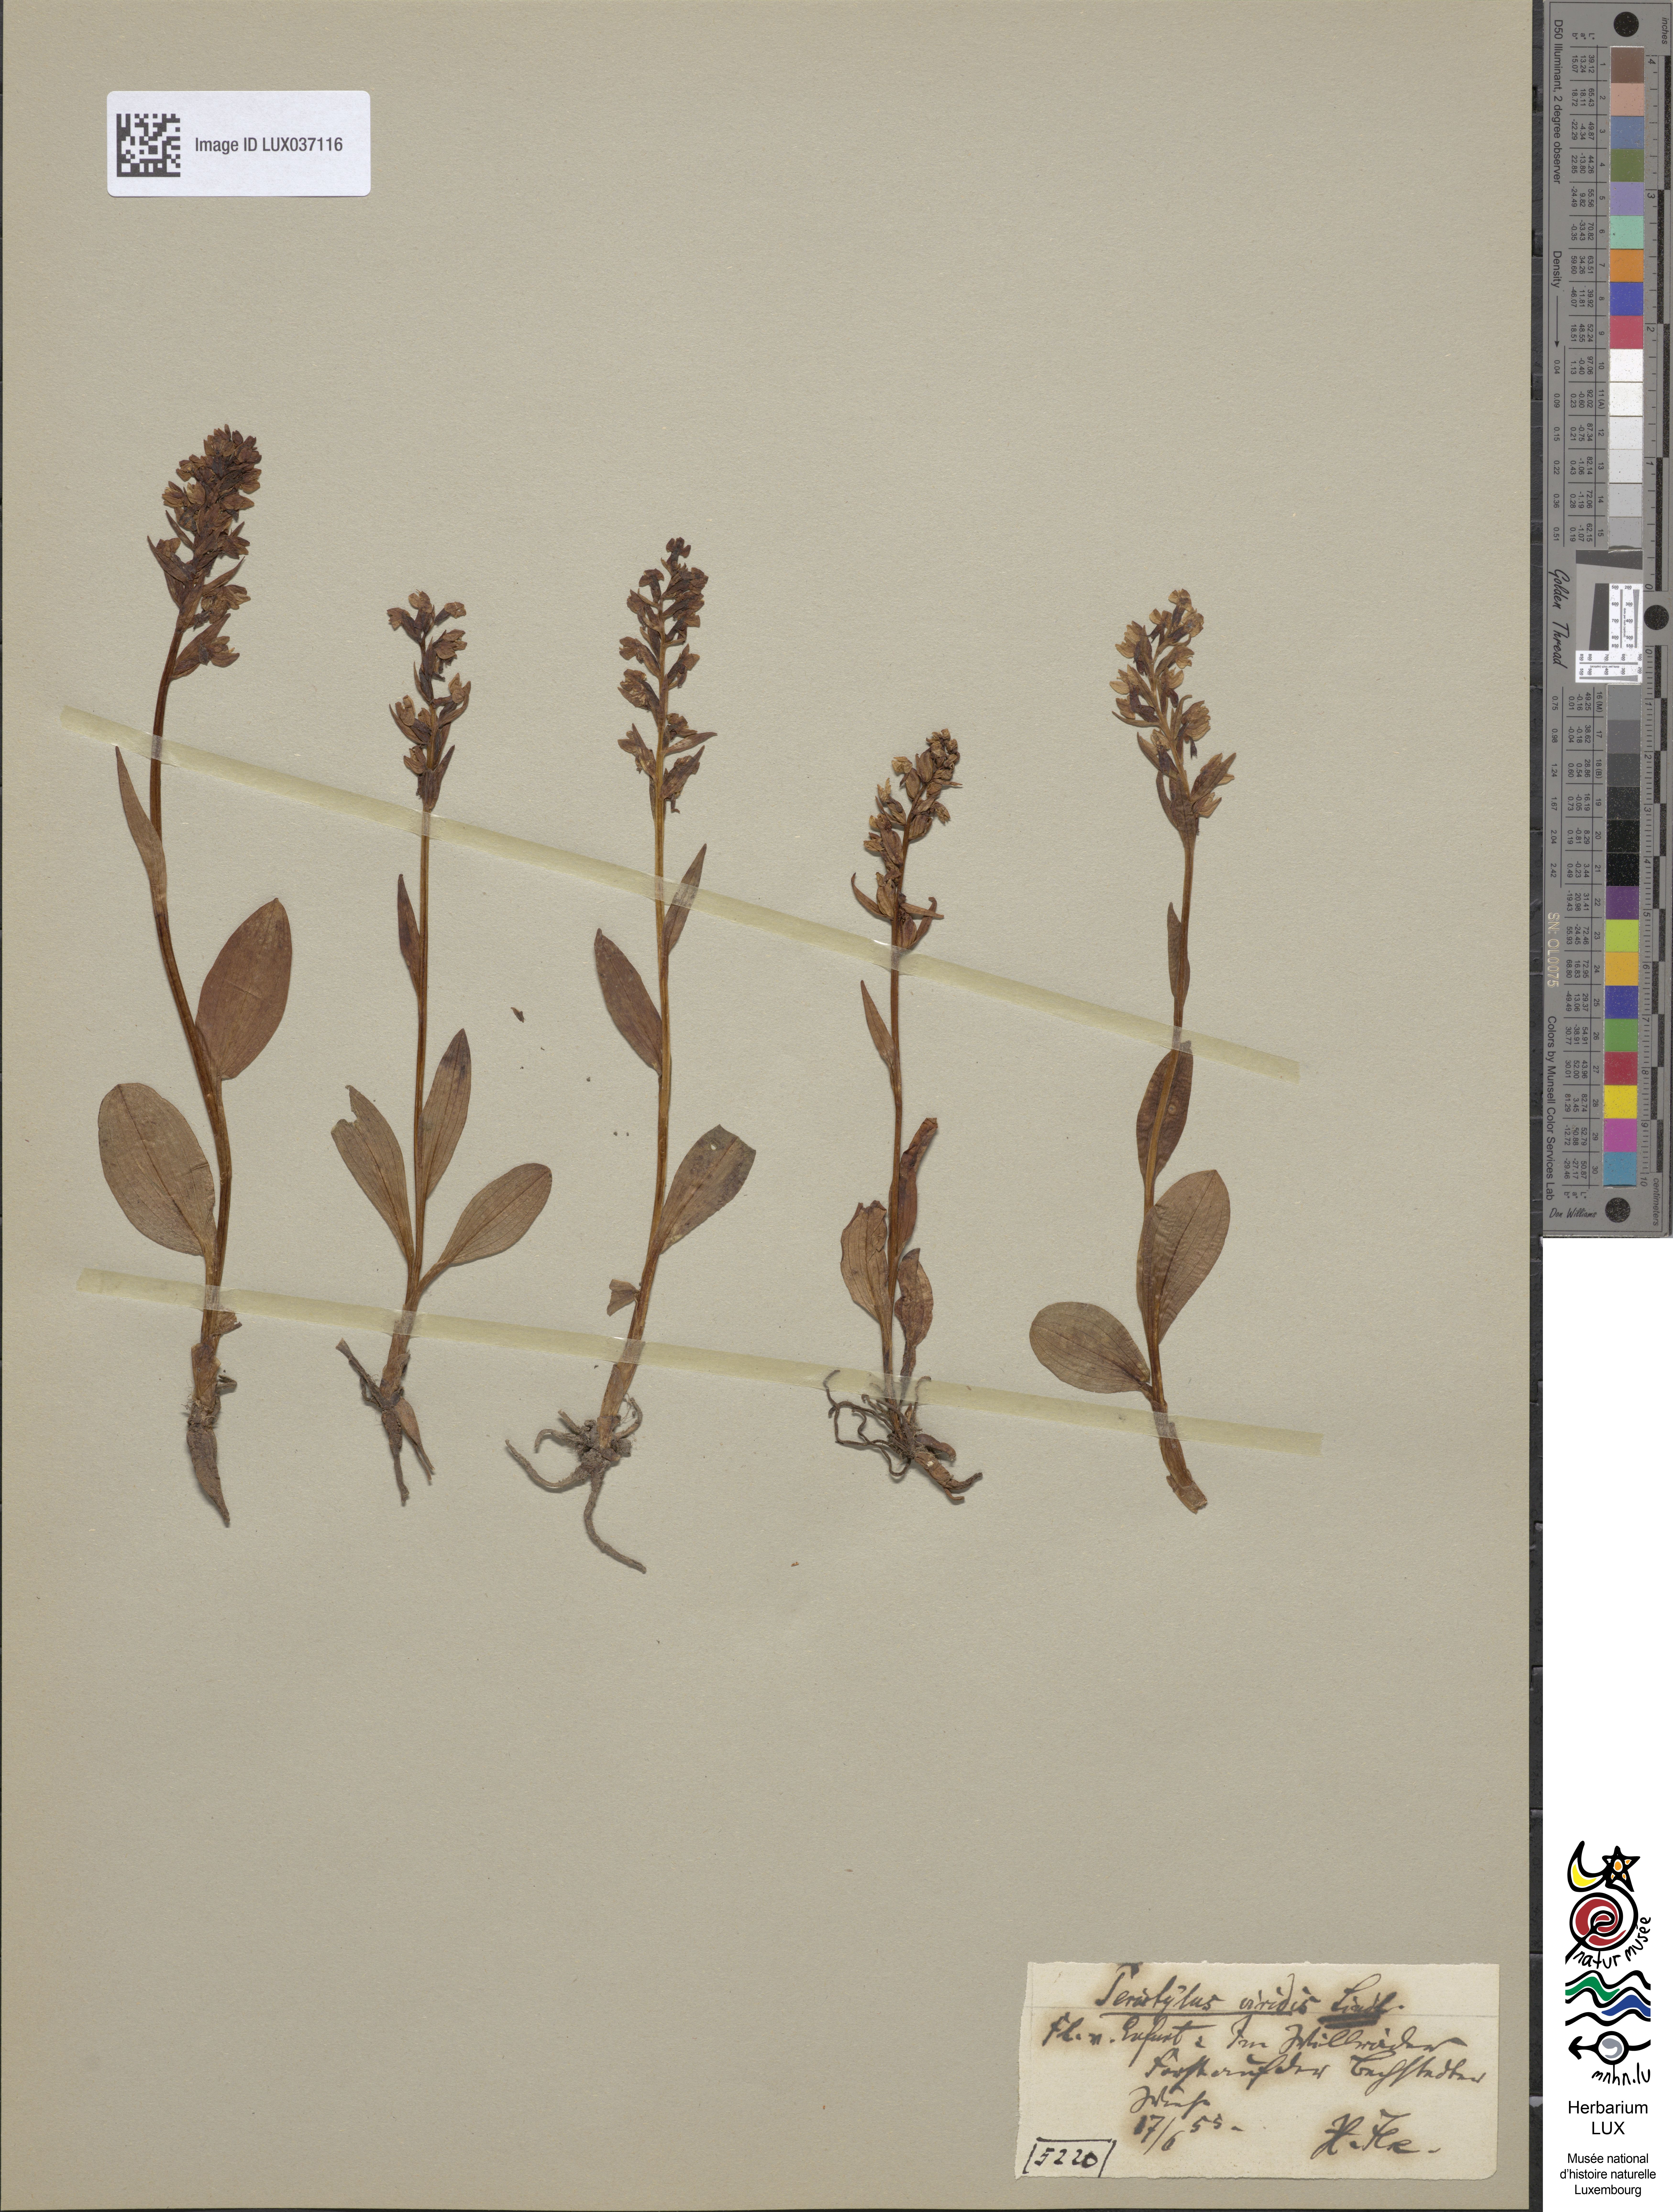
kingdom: Plantae
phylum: Tracheophyta
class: Liliopsida
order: Asparagales
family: Orchidaceae
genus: Dactylorhiza
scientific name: Dactylorhiza viridis
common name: Longbract frog orchid
